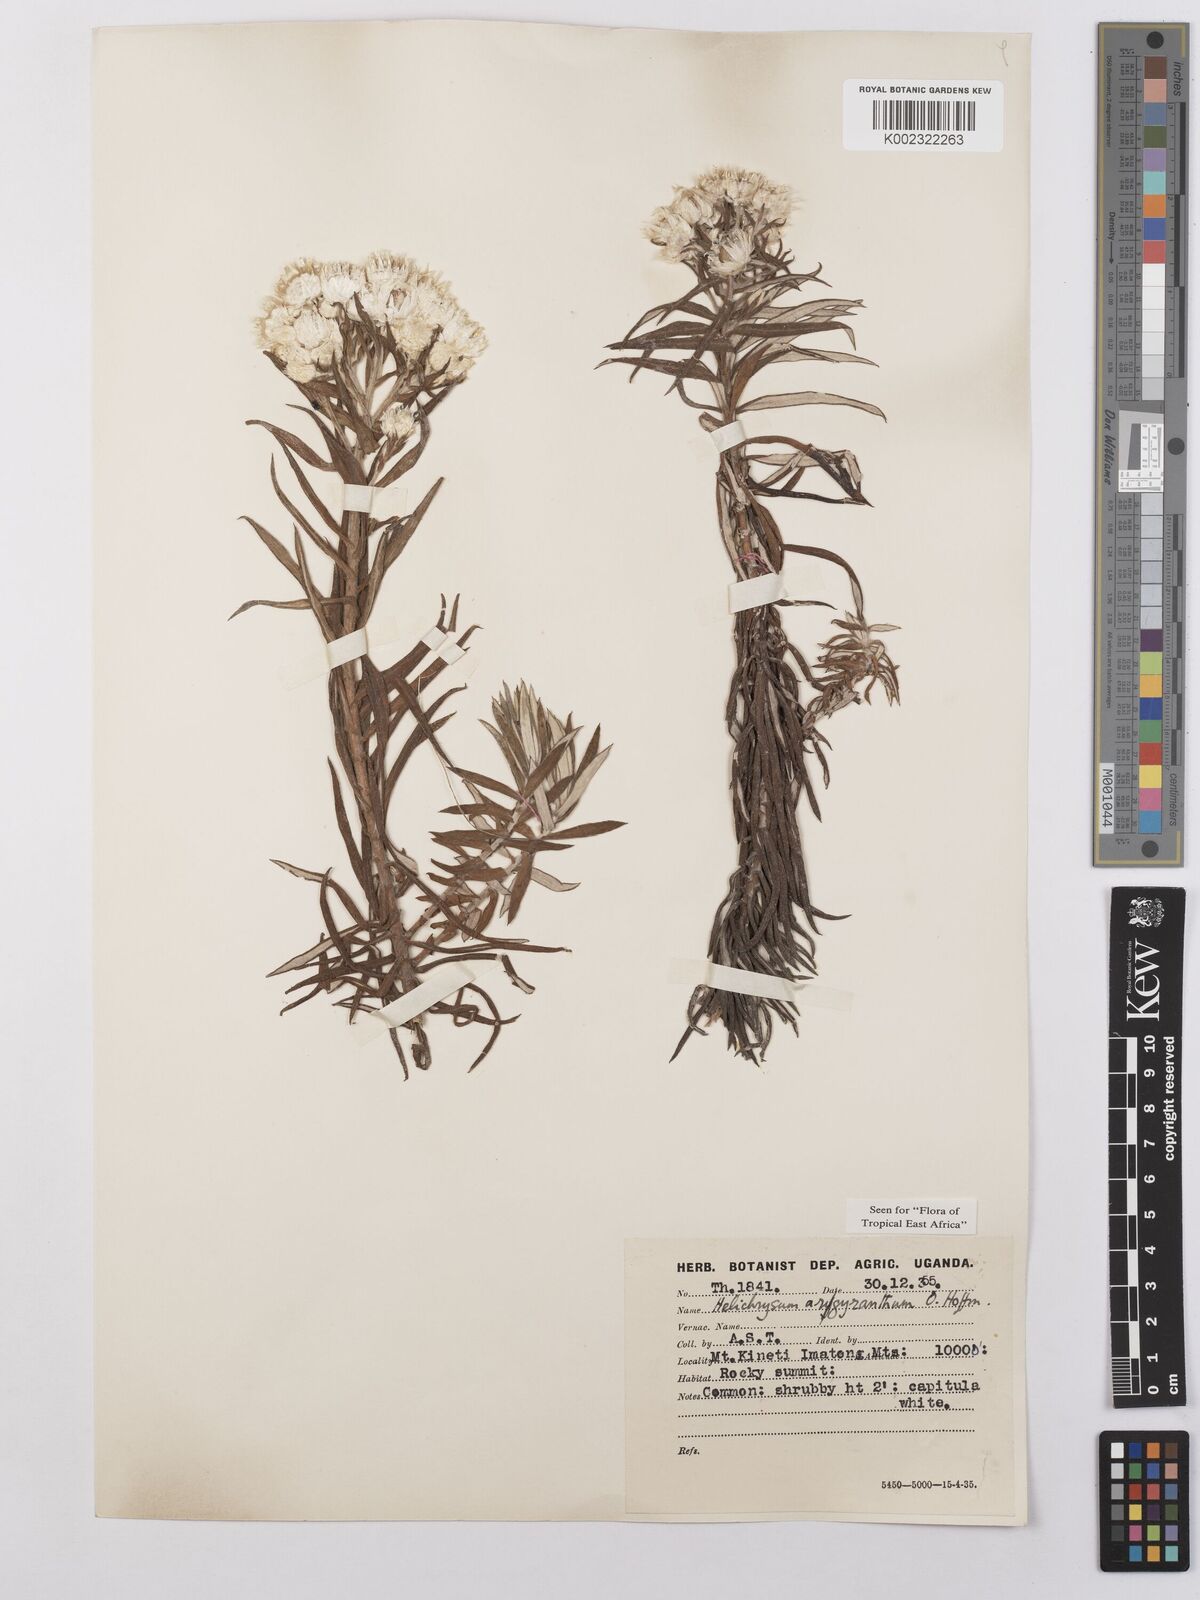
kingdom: Plantae
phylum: Tracheophyta
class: Magnoliopsida
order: Asterales
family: Asteraceae
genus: Helichrysum
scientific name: Helichrysum argyranthum
